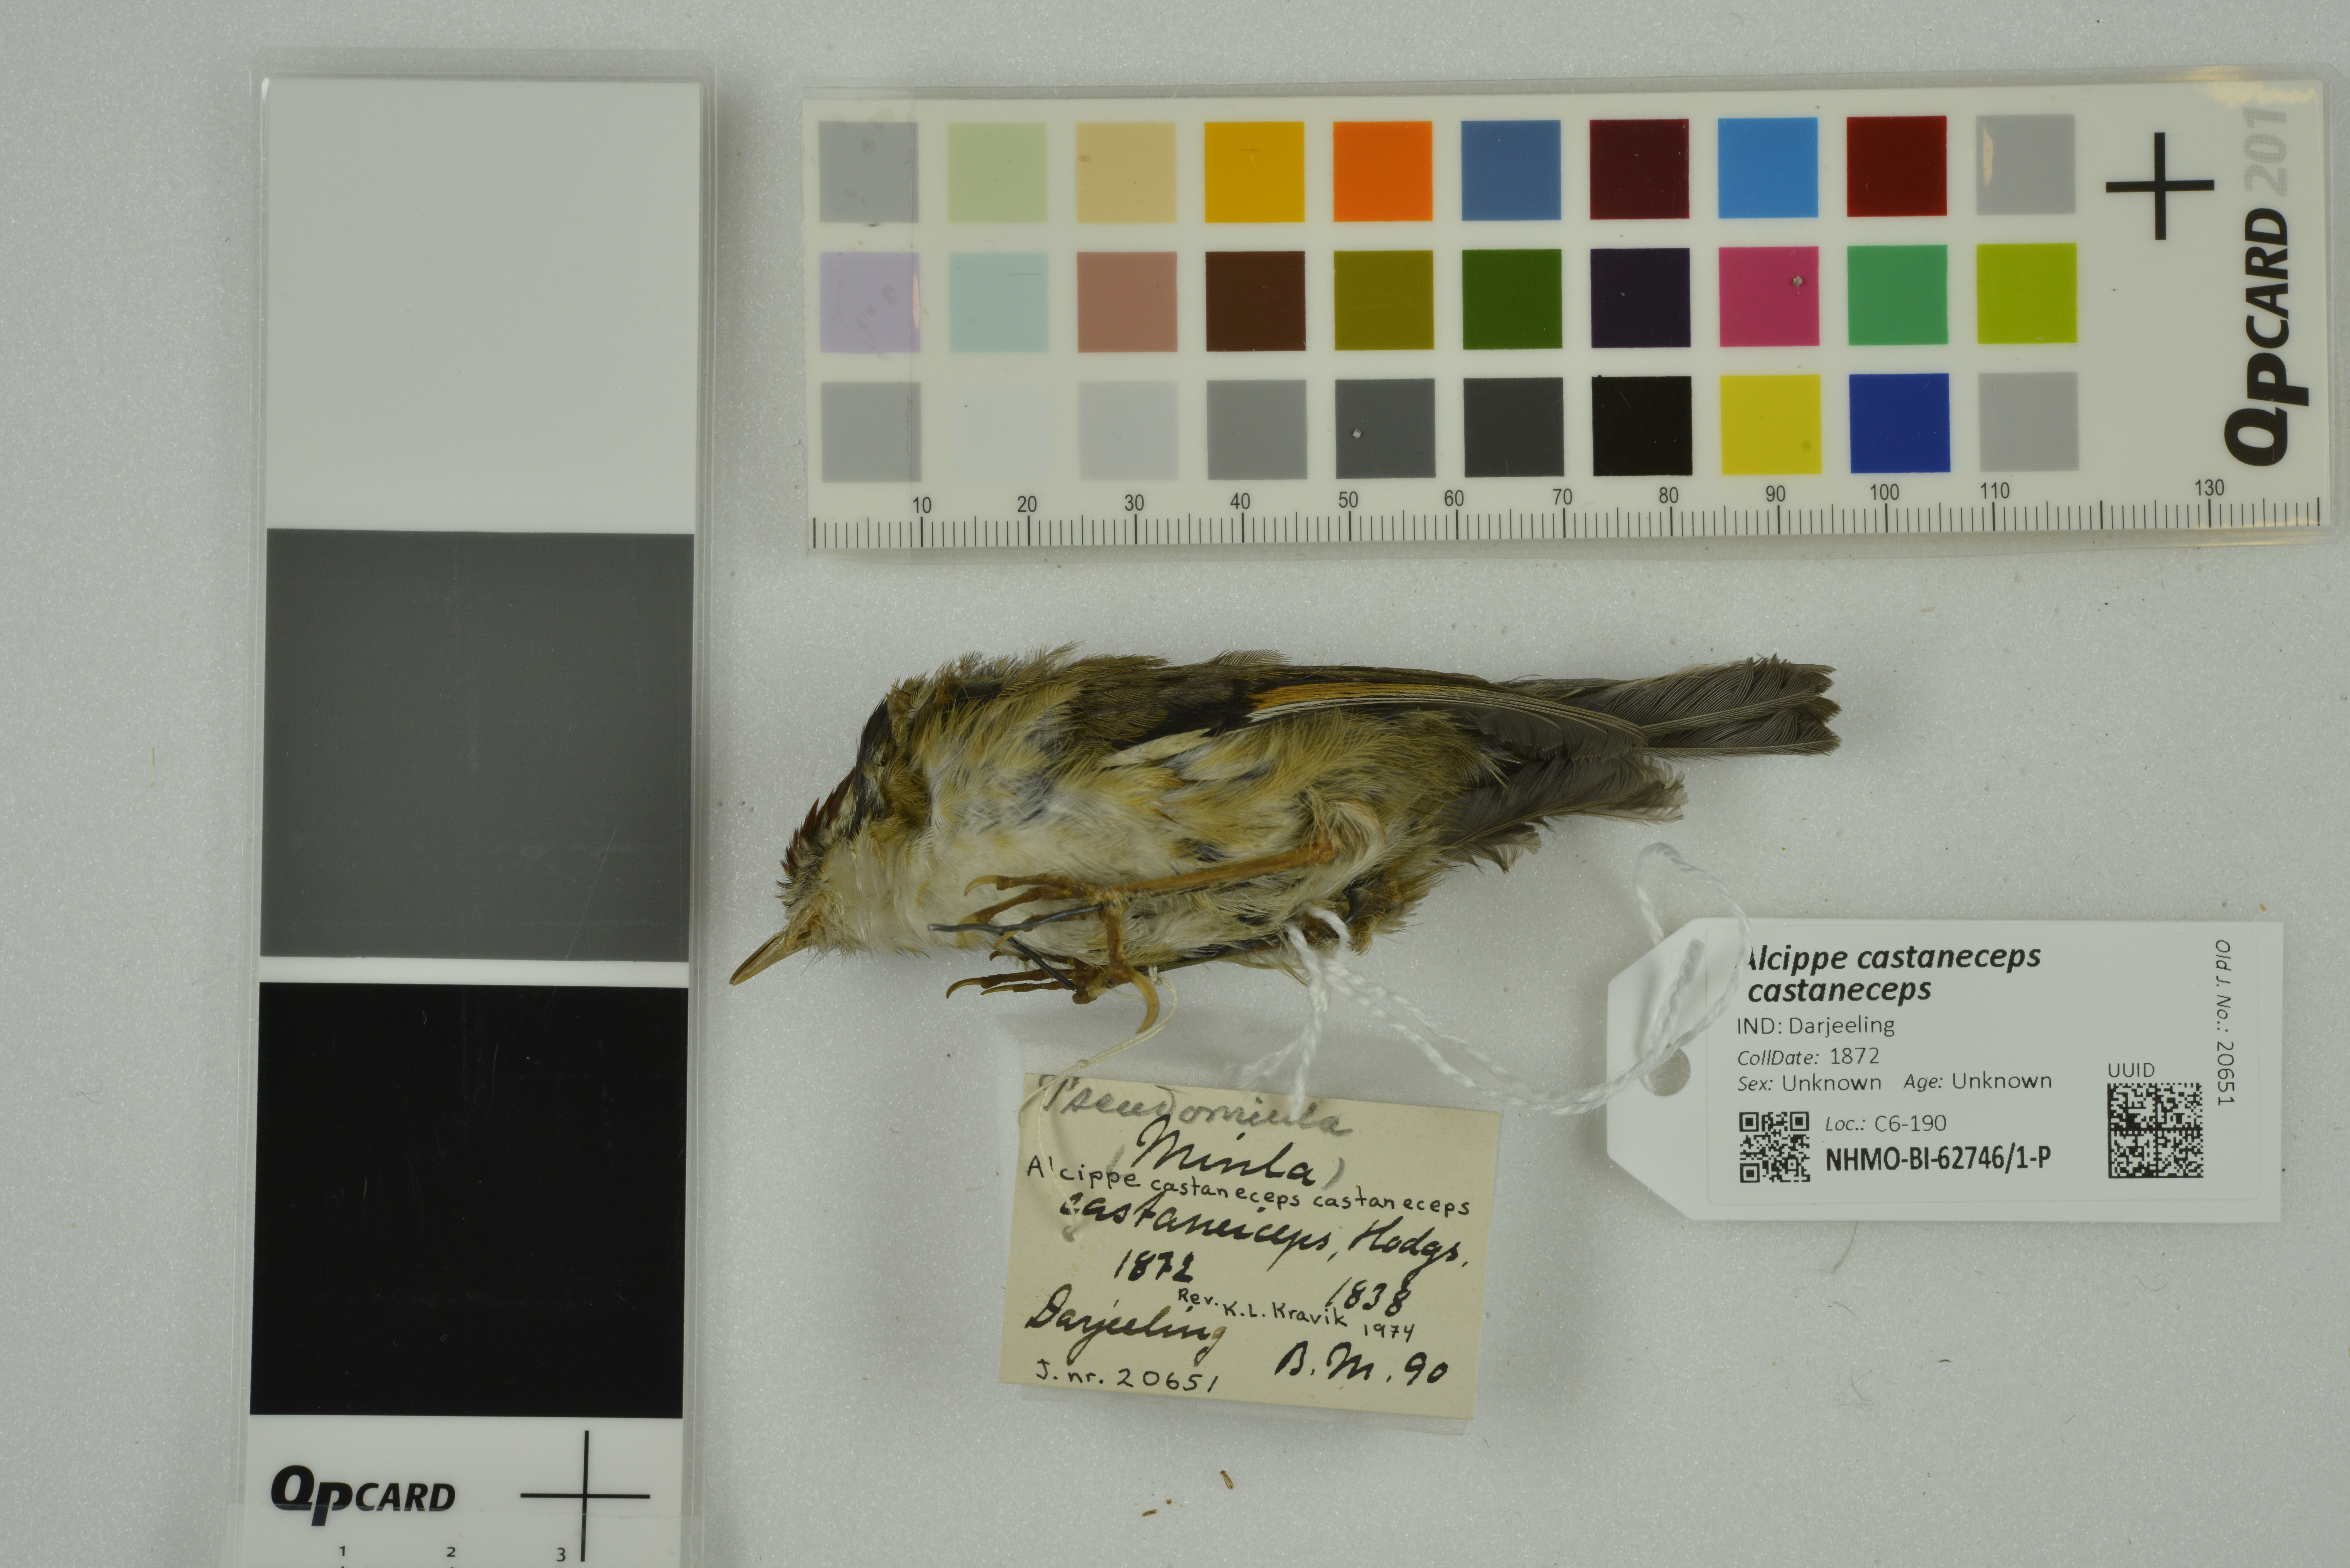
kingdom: Animalia
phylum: Chordata
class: Aves
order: Passeriformes
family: Pellorneidae
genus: Alcippe
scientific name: Alcippe castaneceps
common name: Rufous-winged fulvetta
